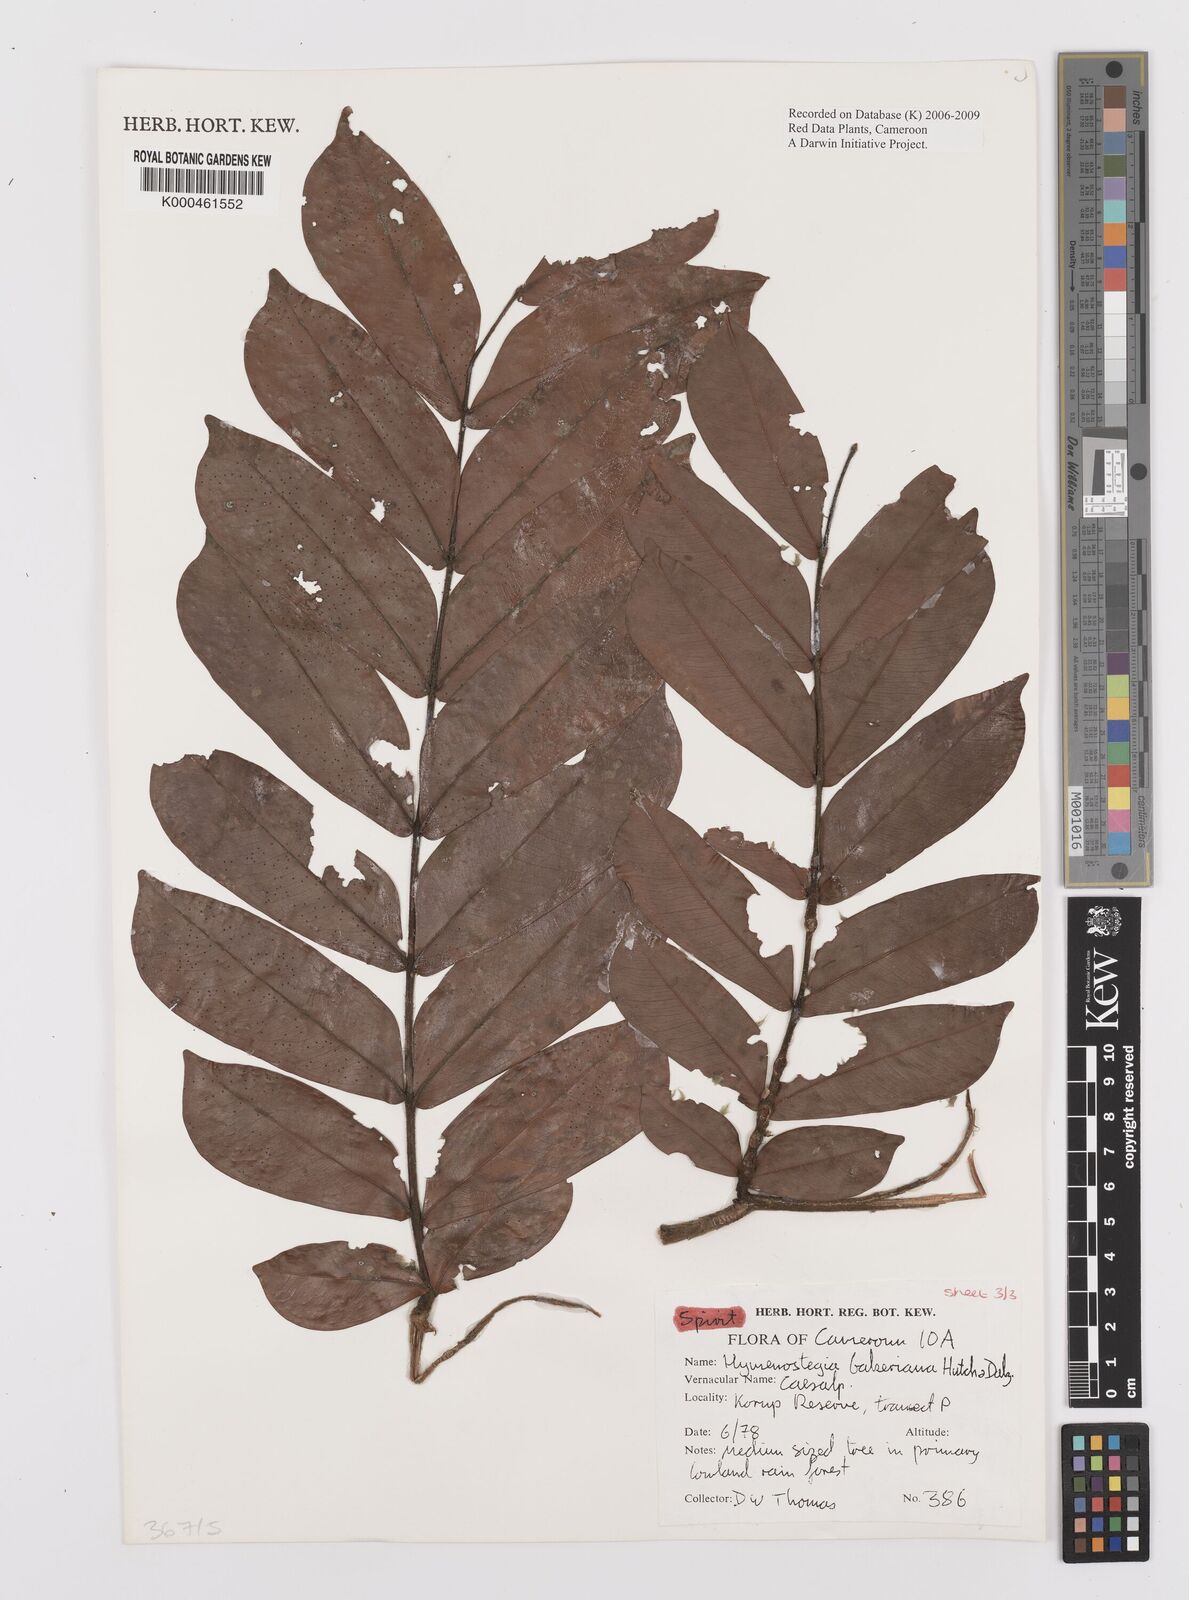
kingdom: Plantae
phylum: Tracheophyta
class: Magnoliopsida
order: Fabales
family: Fabaceae
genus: Hymenostegia
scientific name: Hymenostegia bakeriana
